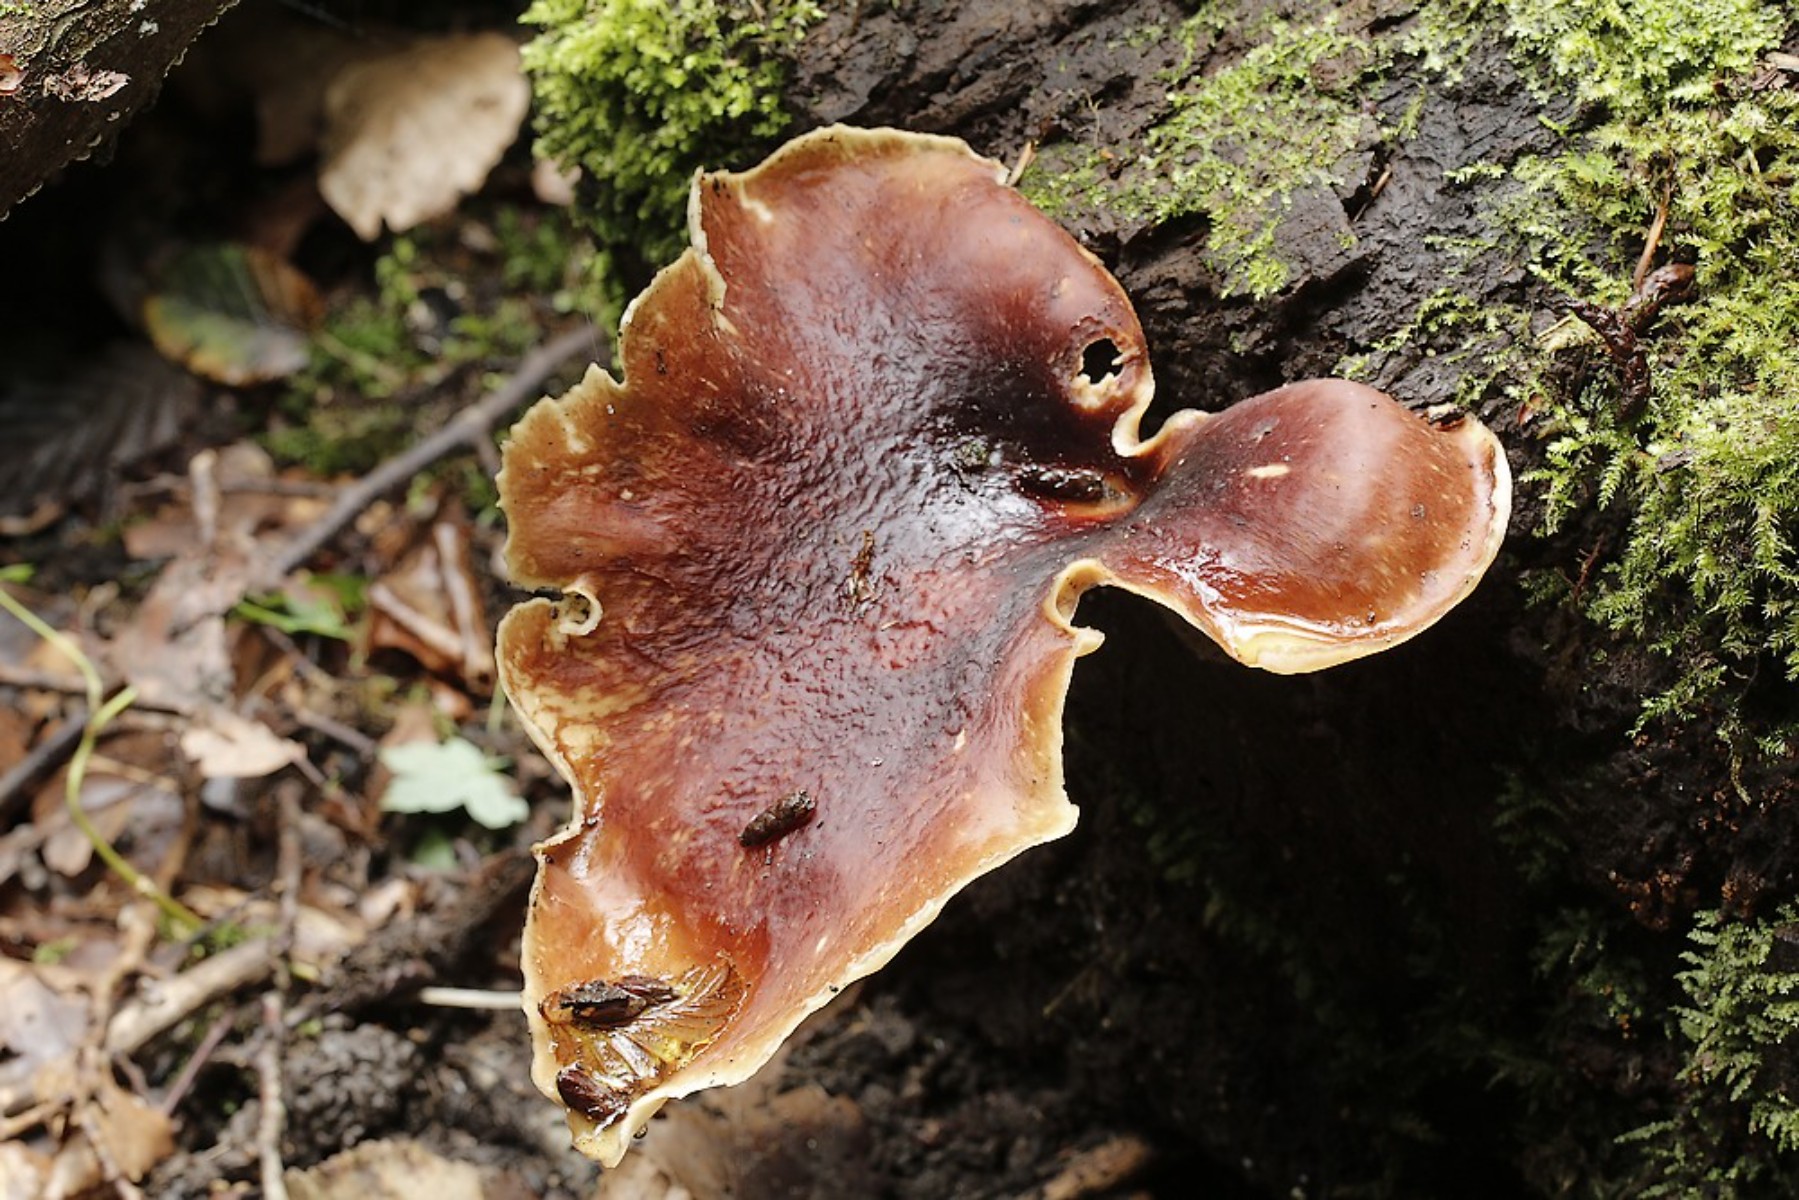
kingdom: Fungi
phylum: Basidiomycota
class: Agaricomycetes
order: Polyporales
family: Polyporaceae
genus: Picipes
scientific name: Picipes badius
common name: kastaniebrun stilkporesvamp
